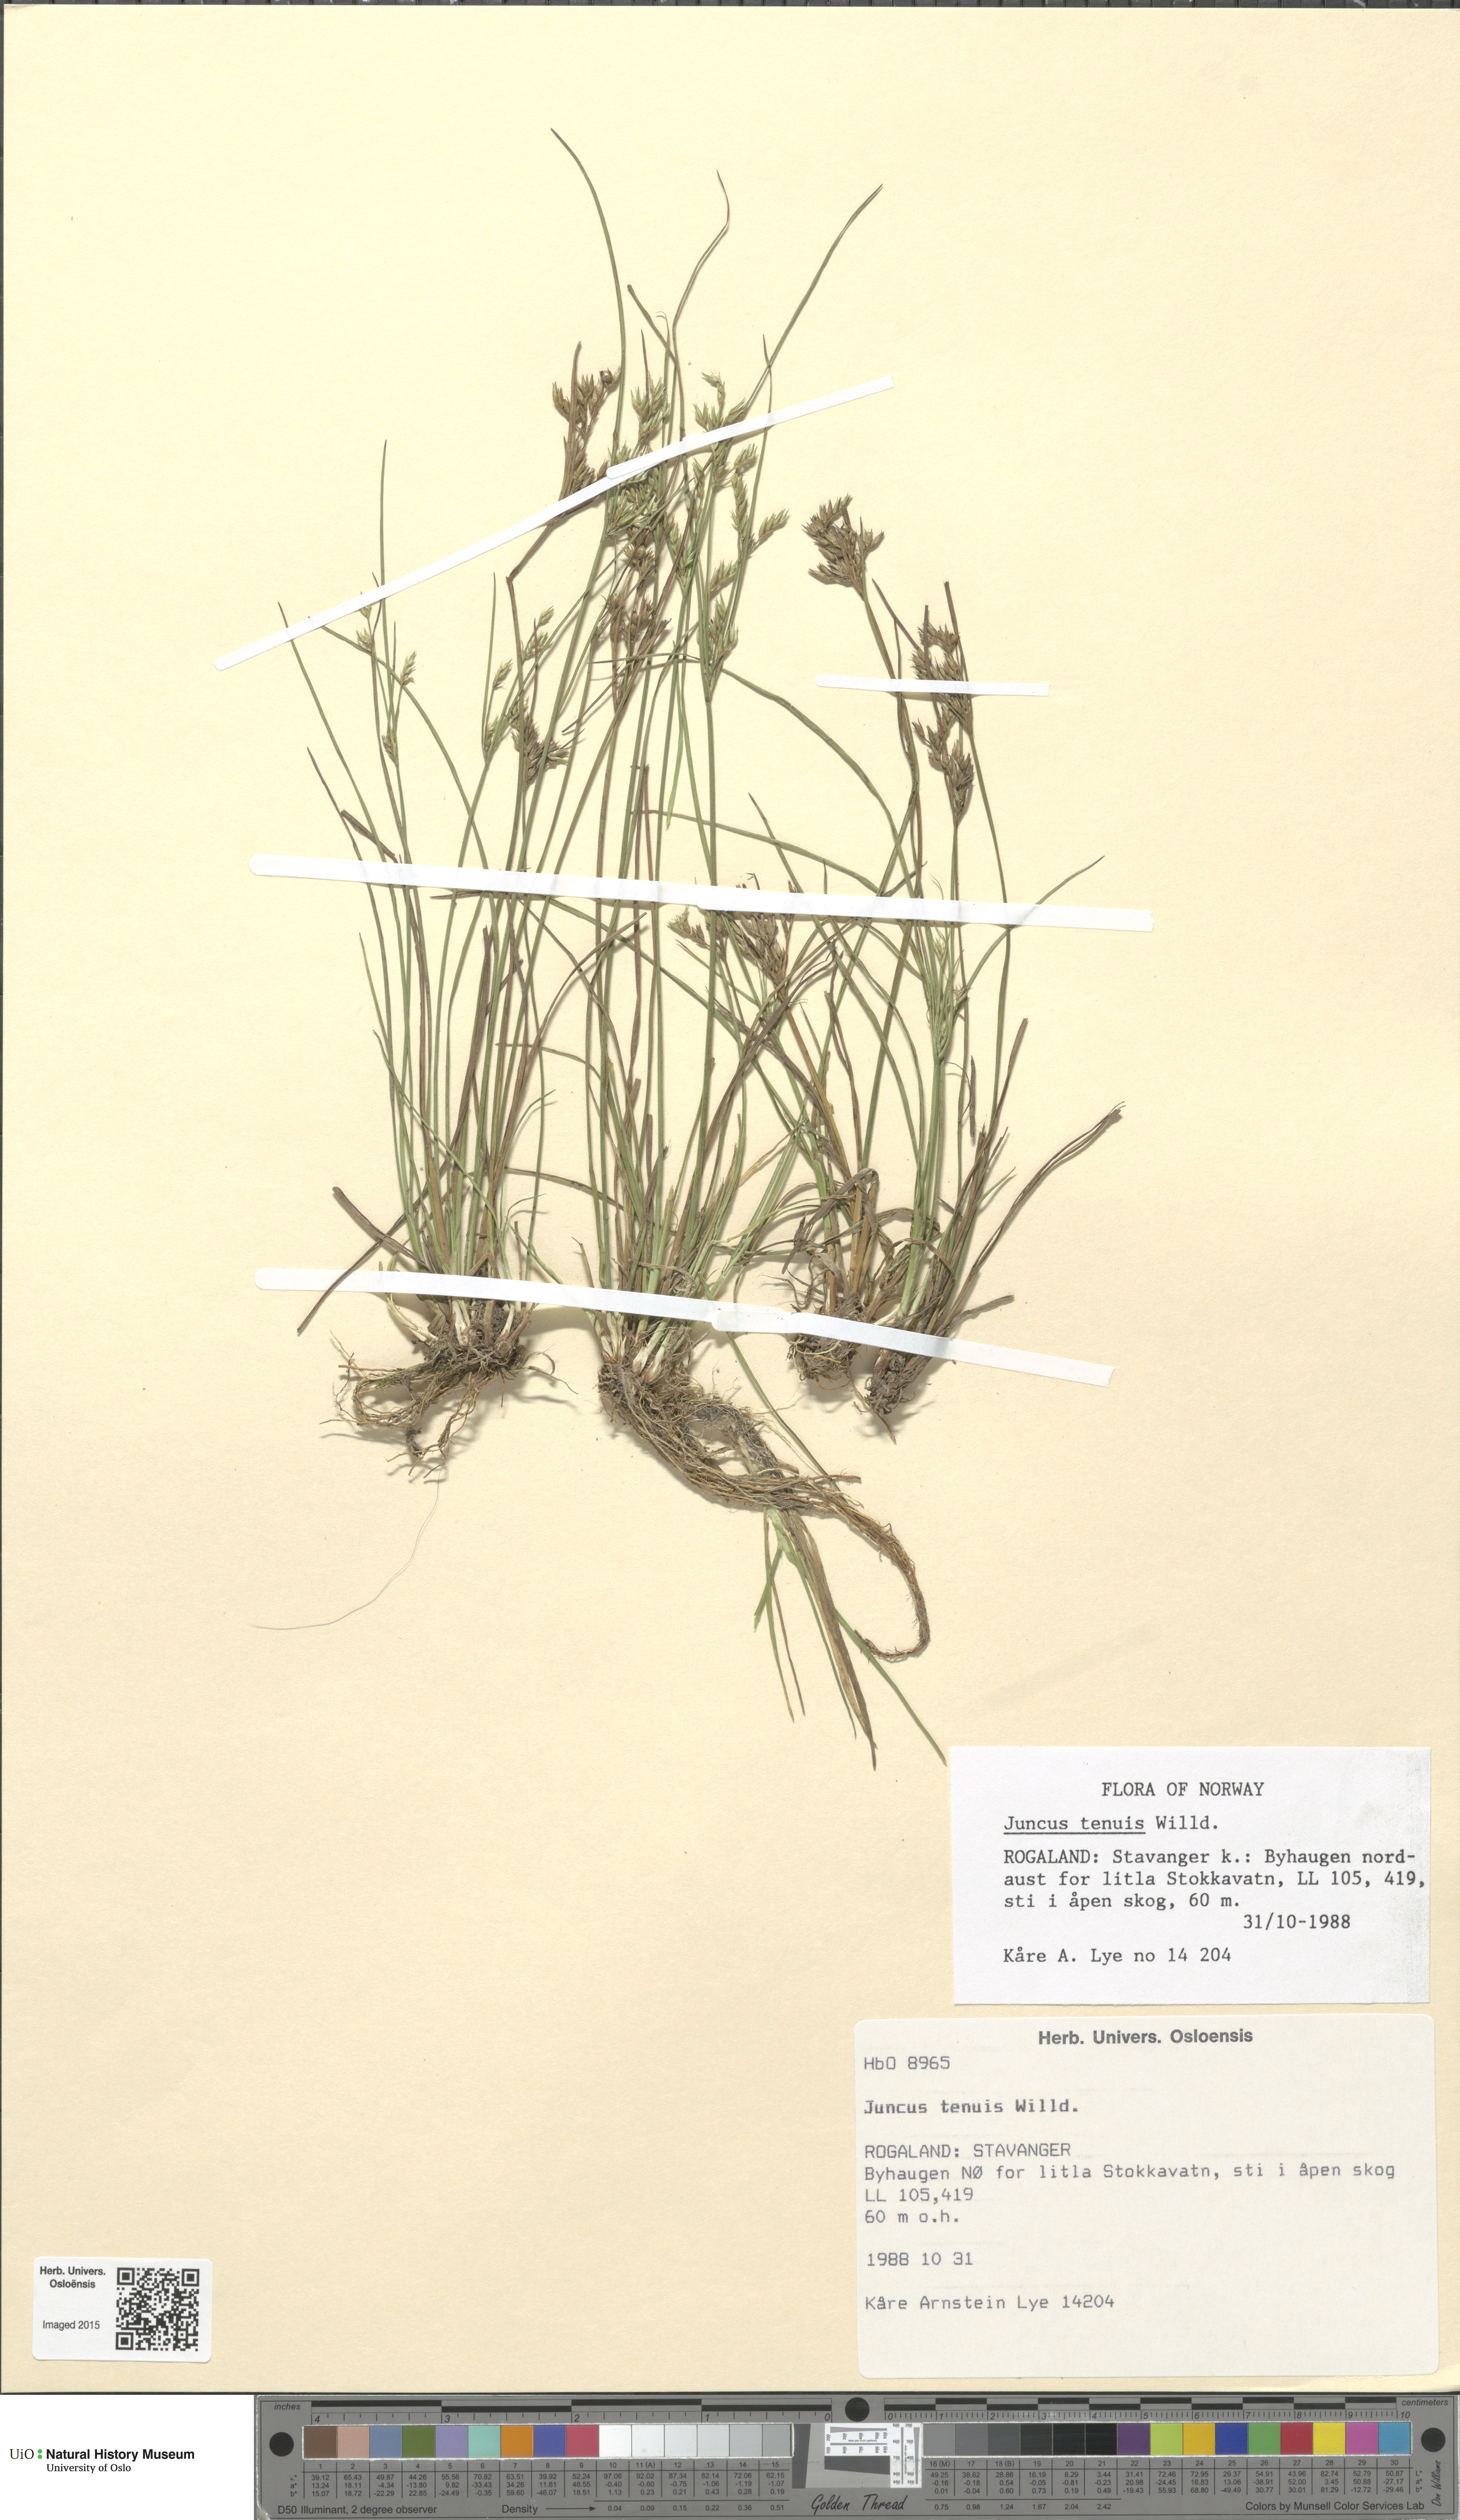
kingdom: Plantae
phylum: Tracheophyta
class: Liliopsida
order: Poales
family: Juncaceae
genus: Juncus
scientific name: Juncus tenuis
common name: Slender rush
